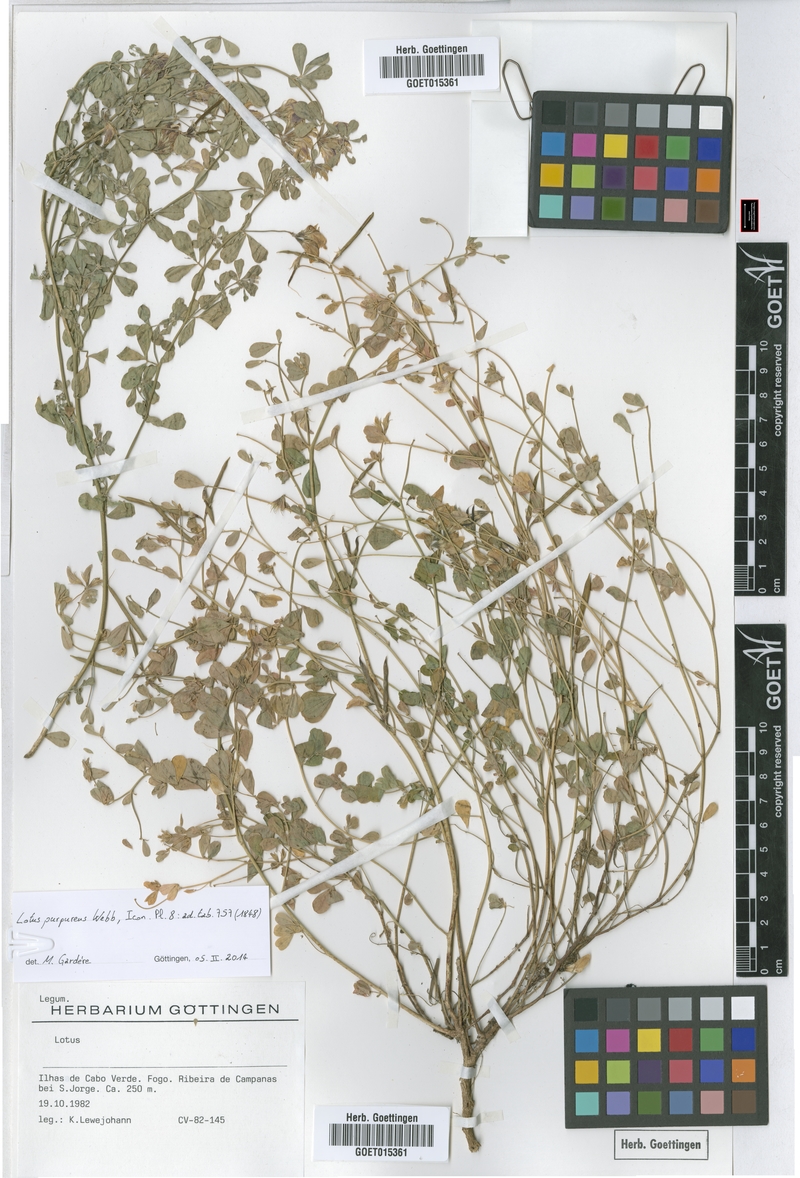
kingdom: Plantae
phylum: Tracheophyta
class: Magnoliopsida
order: Fabales
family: Fabaceae
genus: Lotus
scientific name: Lotus purpureus
